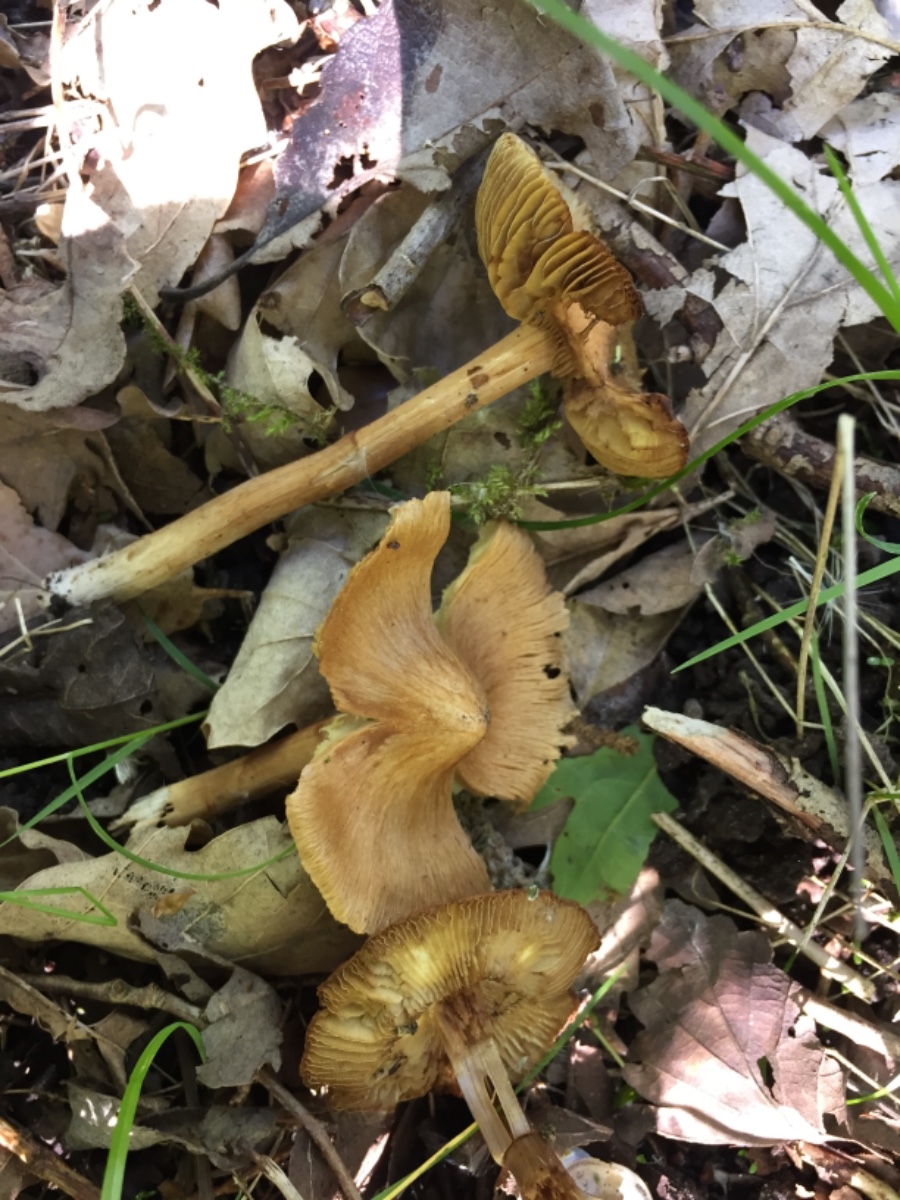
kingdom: Fungi
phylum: Basidiomycota
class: Agaricomycetes
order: Agaricales
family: Inocybaceae
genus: Inocybe
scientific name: Inocybe
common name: trævlhat
